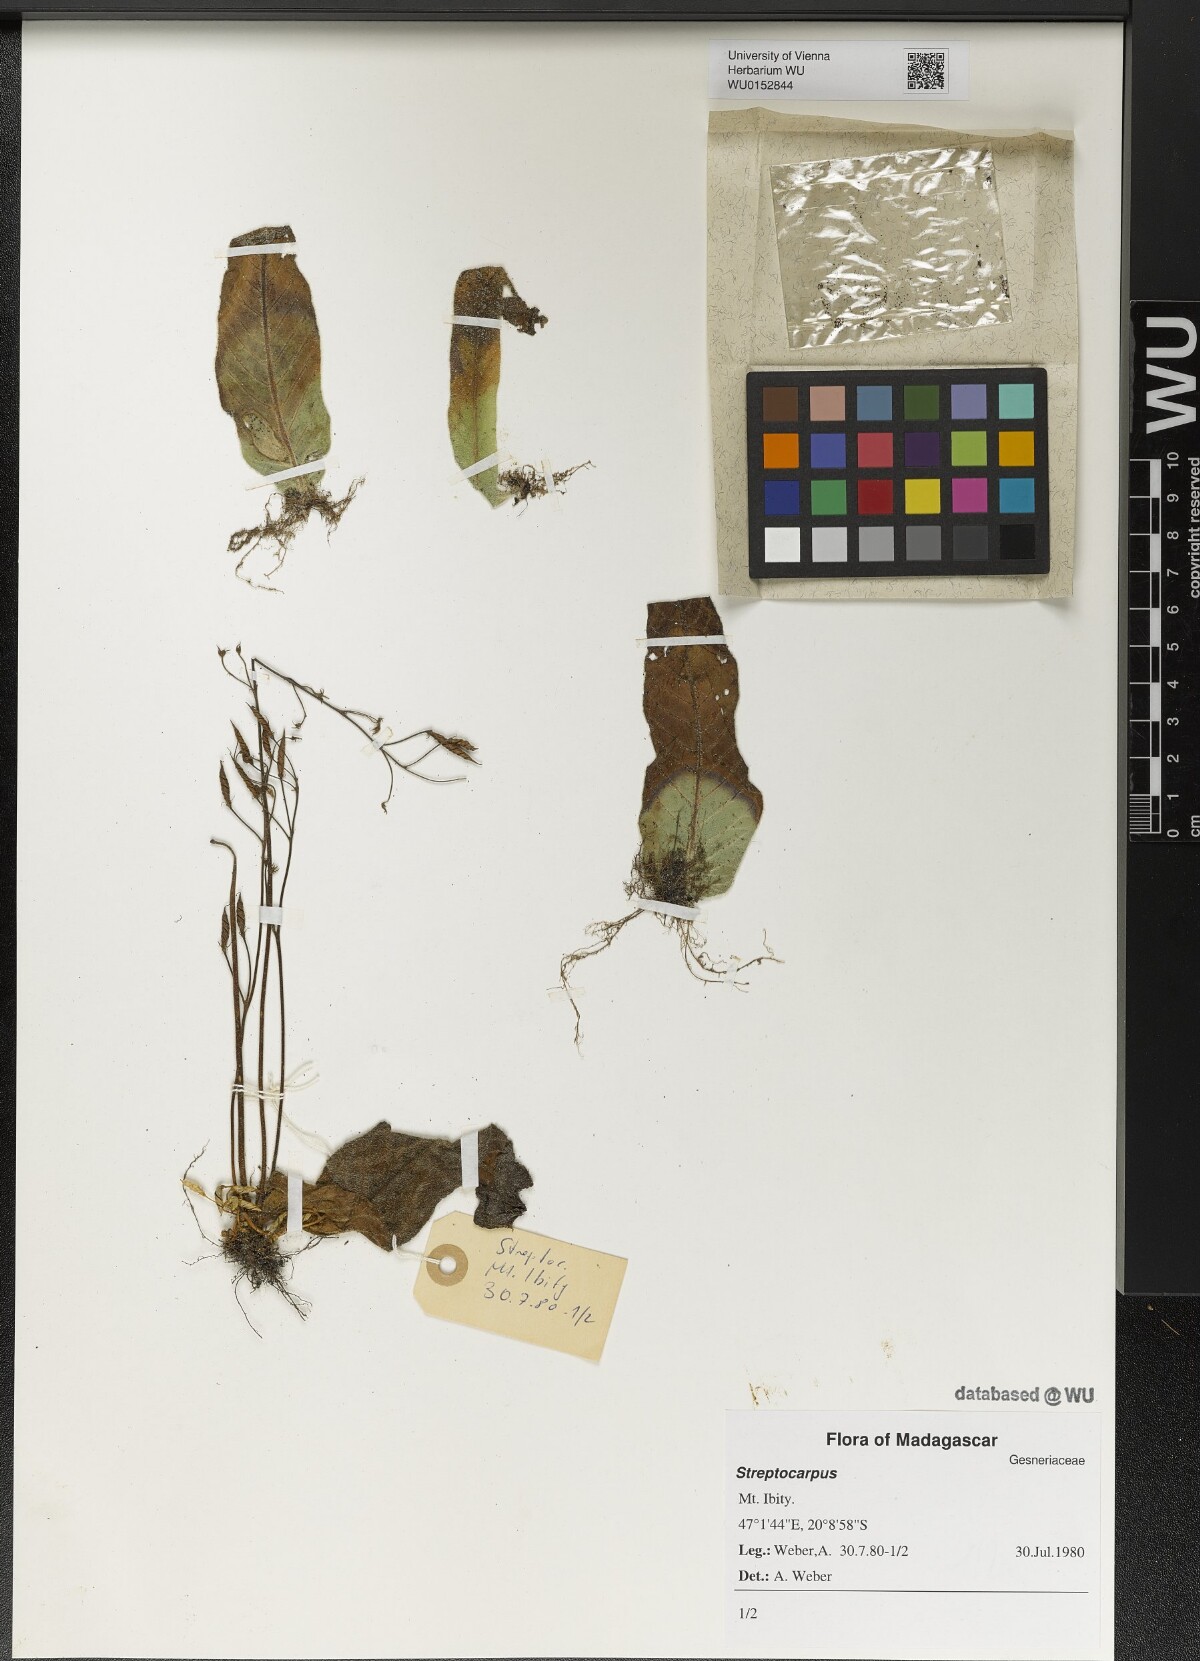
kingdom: Plantae
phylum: Tracheophyta
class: Magnoliopsida
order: Lamiales
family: Gesneriaceae
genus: Streptocarpus
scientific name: Streptocarpus
